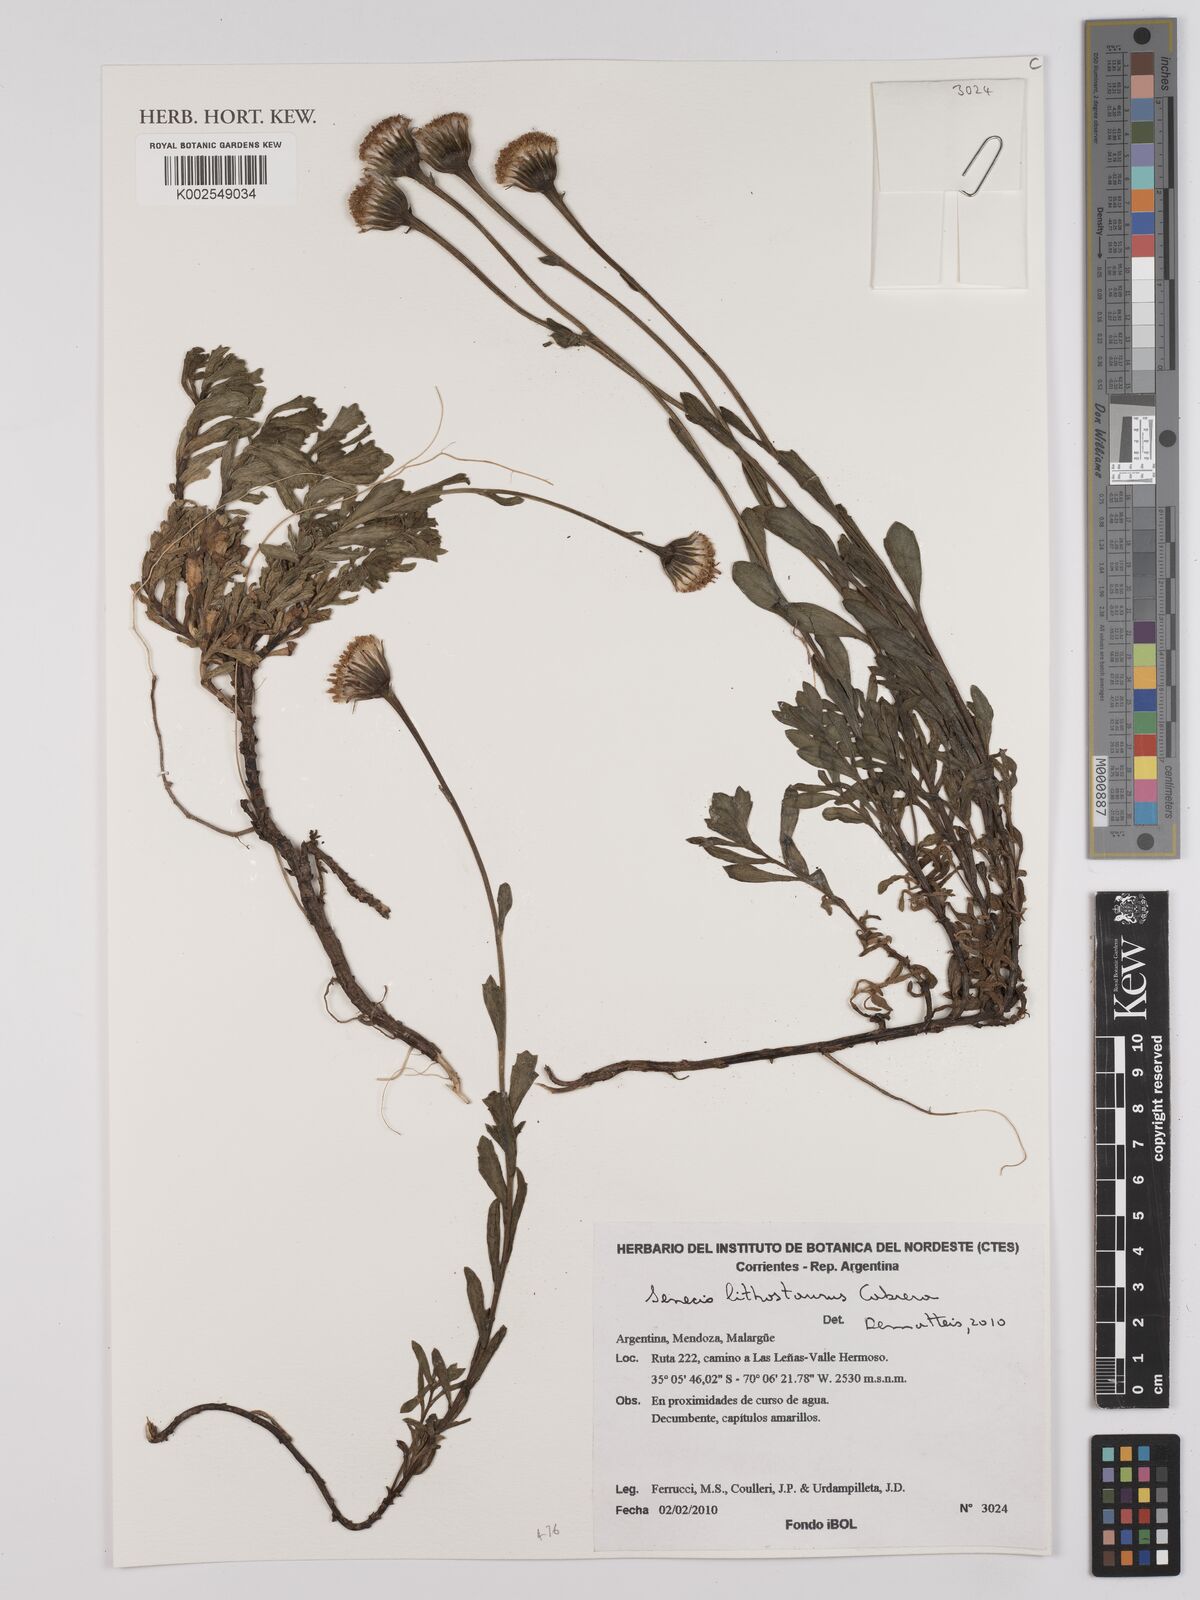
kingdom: Plantae
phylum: Tracheophyta
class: Magnoliopsida
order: Asterales
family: Asteraceae
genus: Senecio
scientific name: Senecio lithostaurus
